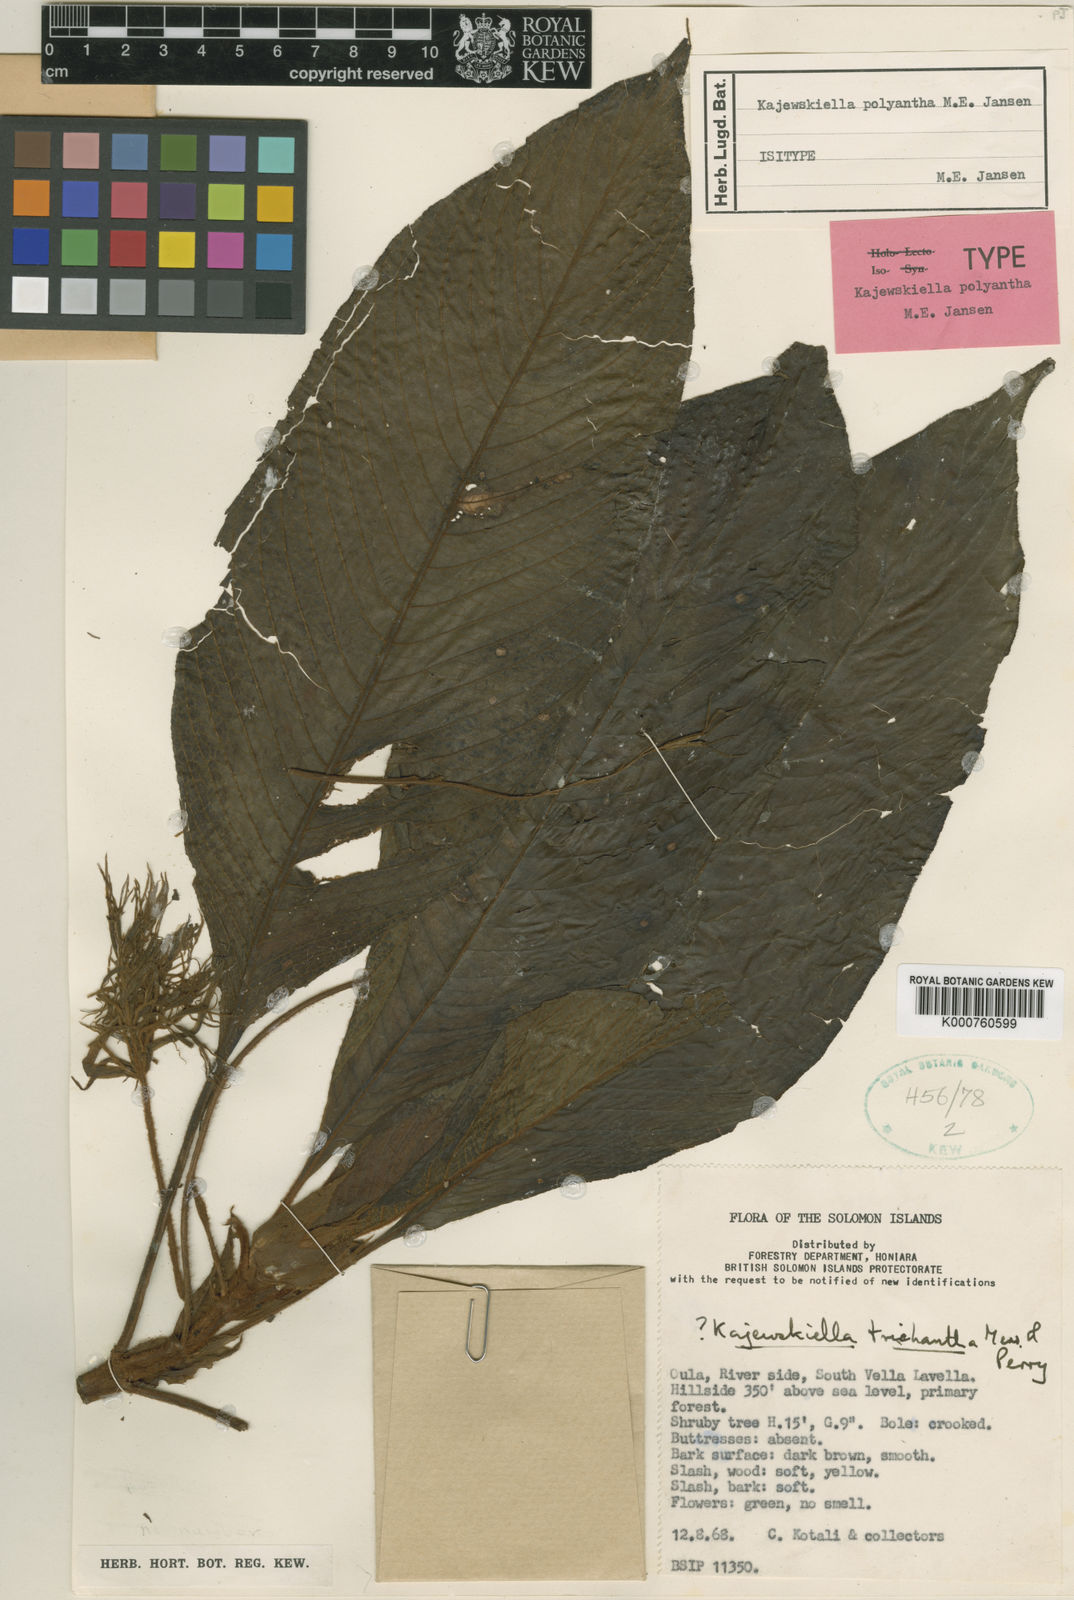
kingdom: Plantae
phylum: Tracheophyta
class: Magnoliopsida
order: Gentianales
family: Rubiaceae
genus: Xanthophytum
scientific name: Xanthophytum polyanthum
